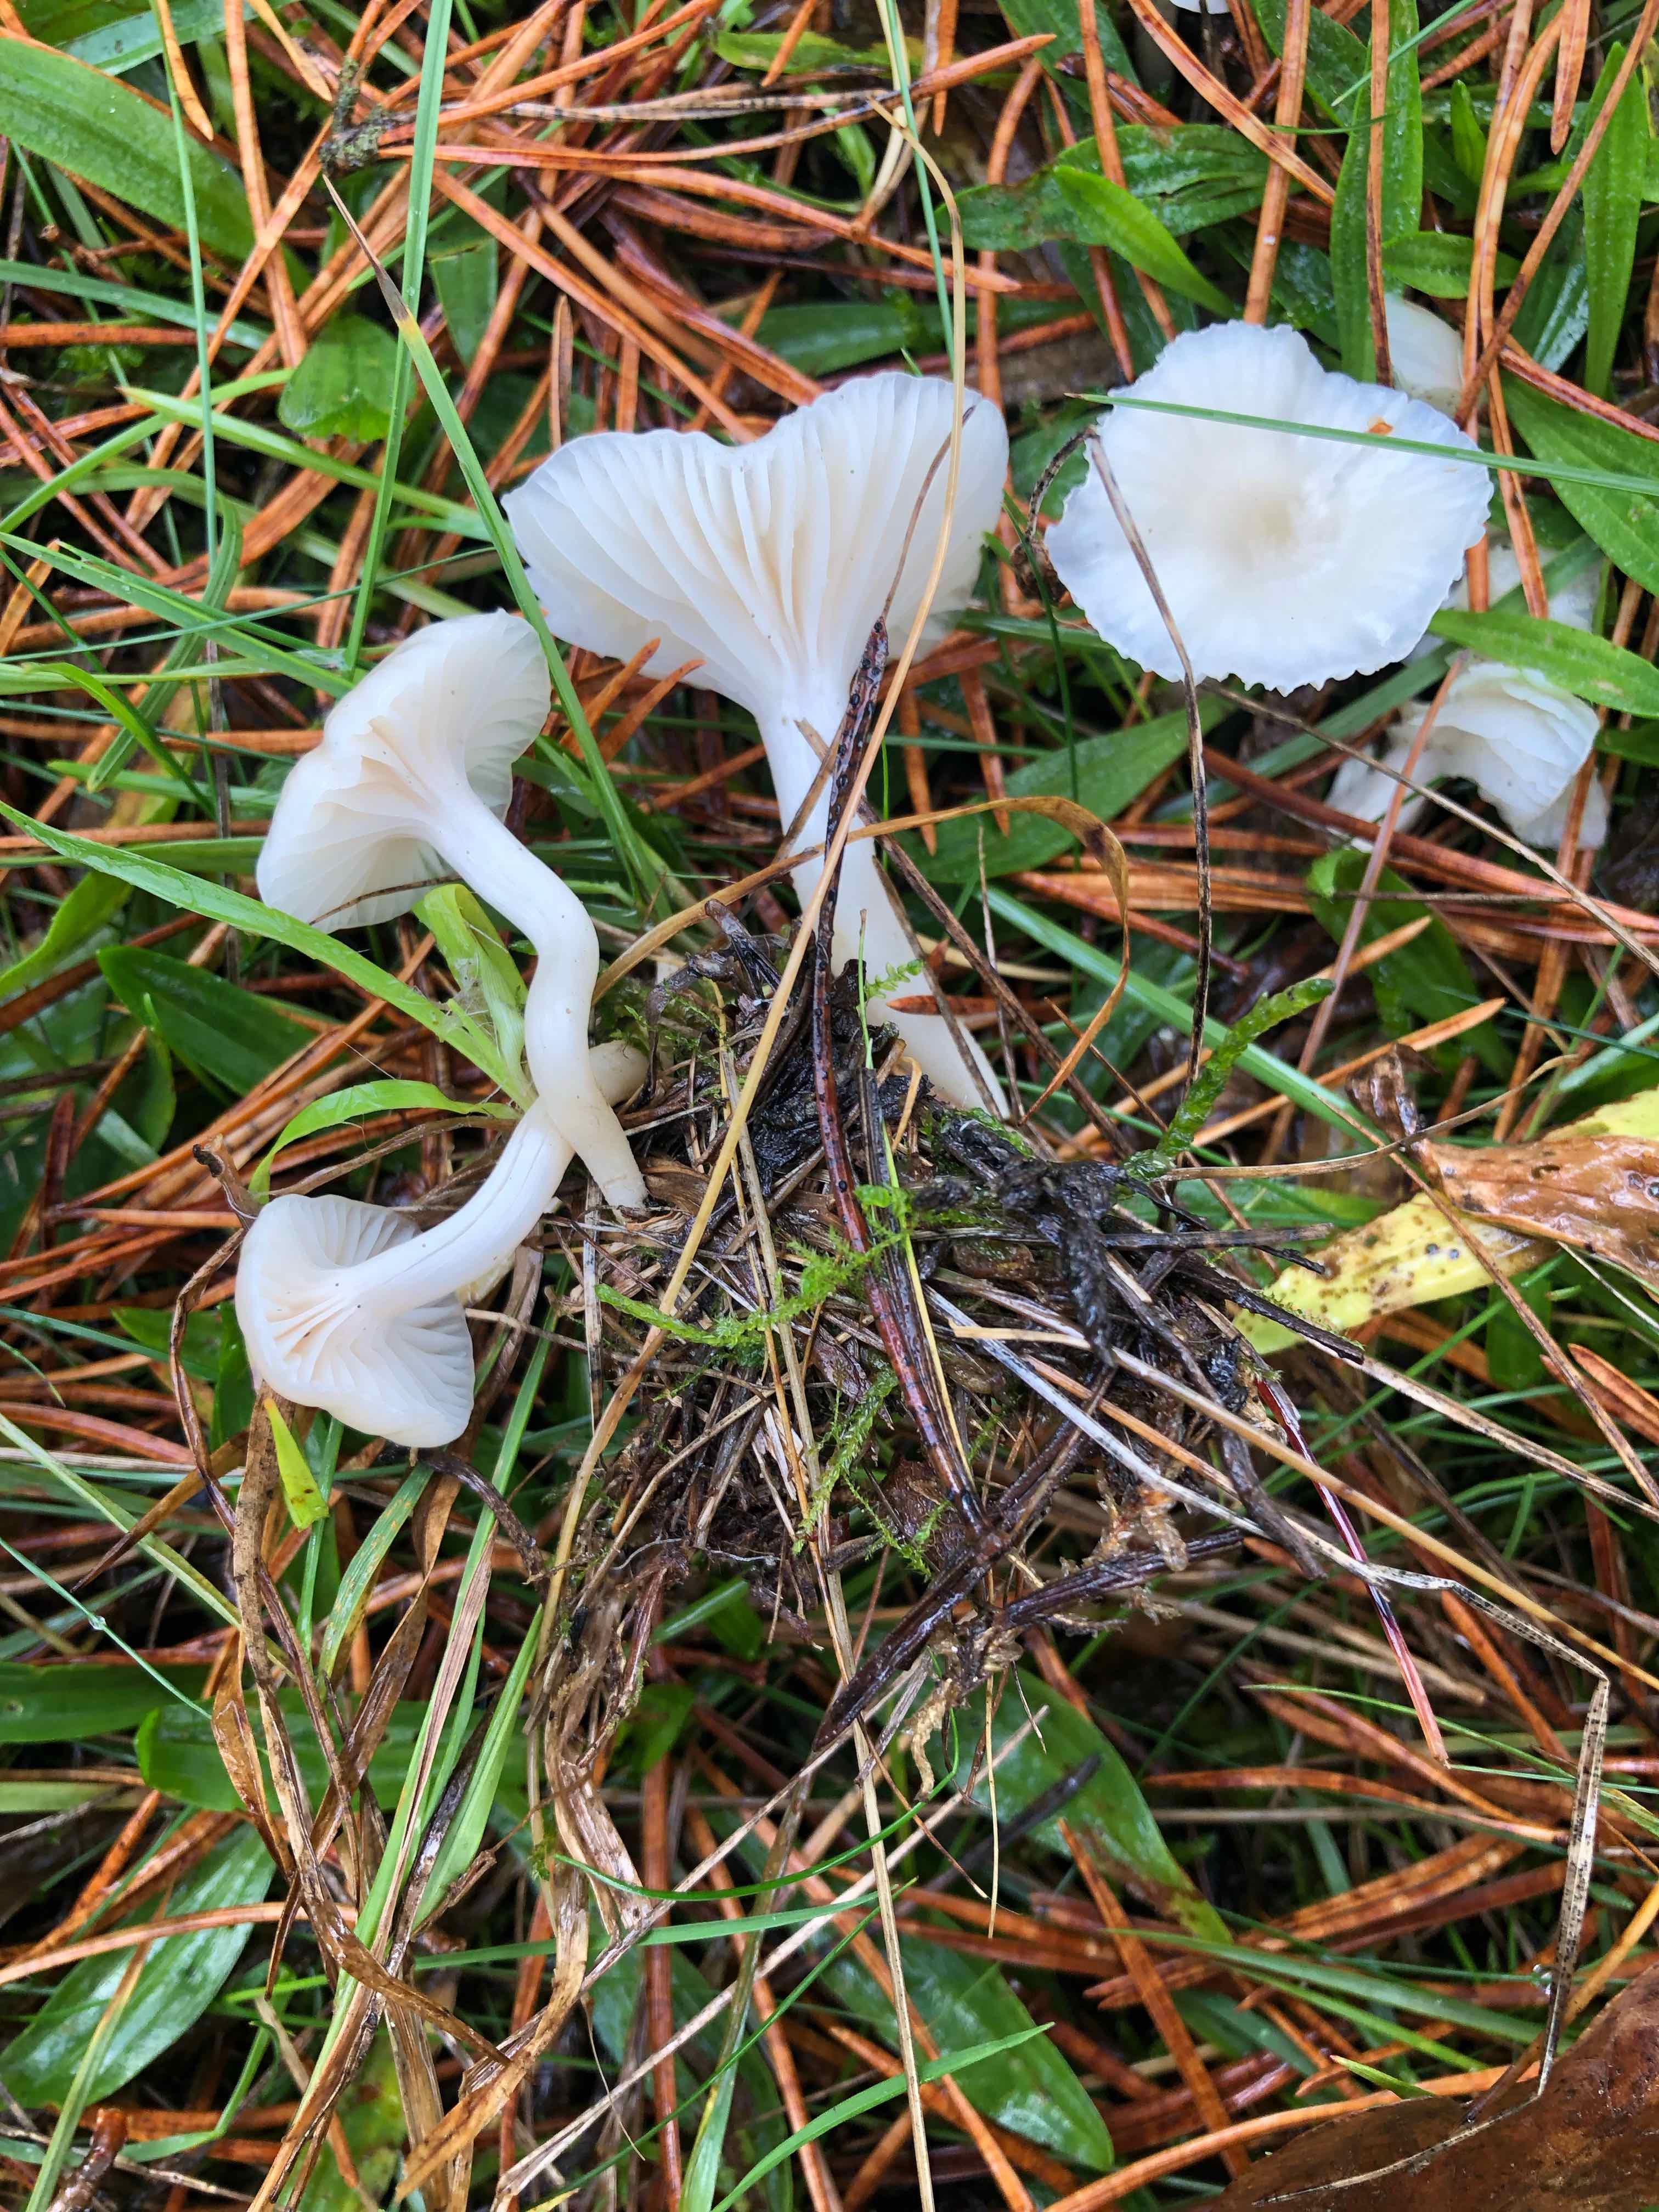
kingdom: Fungi
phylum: Basidiomycota
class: Agaricomycetes
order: Agaricales
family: Hygrophoraceae
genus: Cuphophyllus
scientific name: Cuphophyllus virgineus
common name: snehvid vokshat
